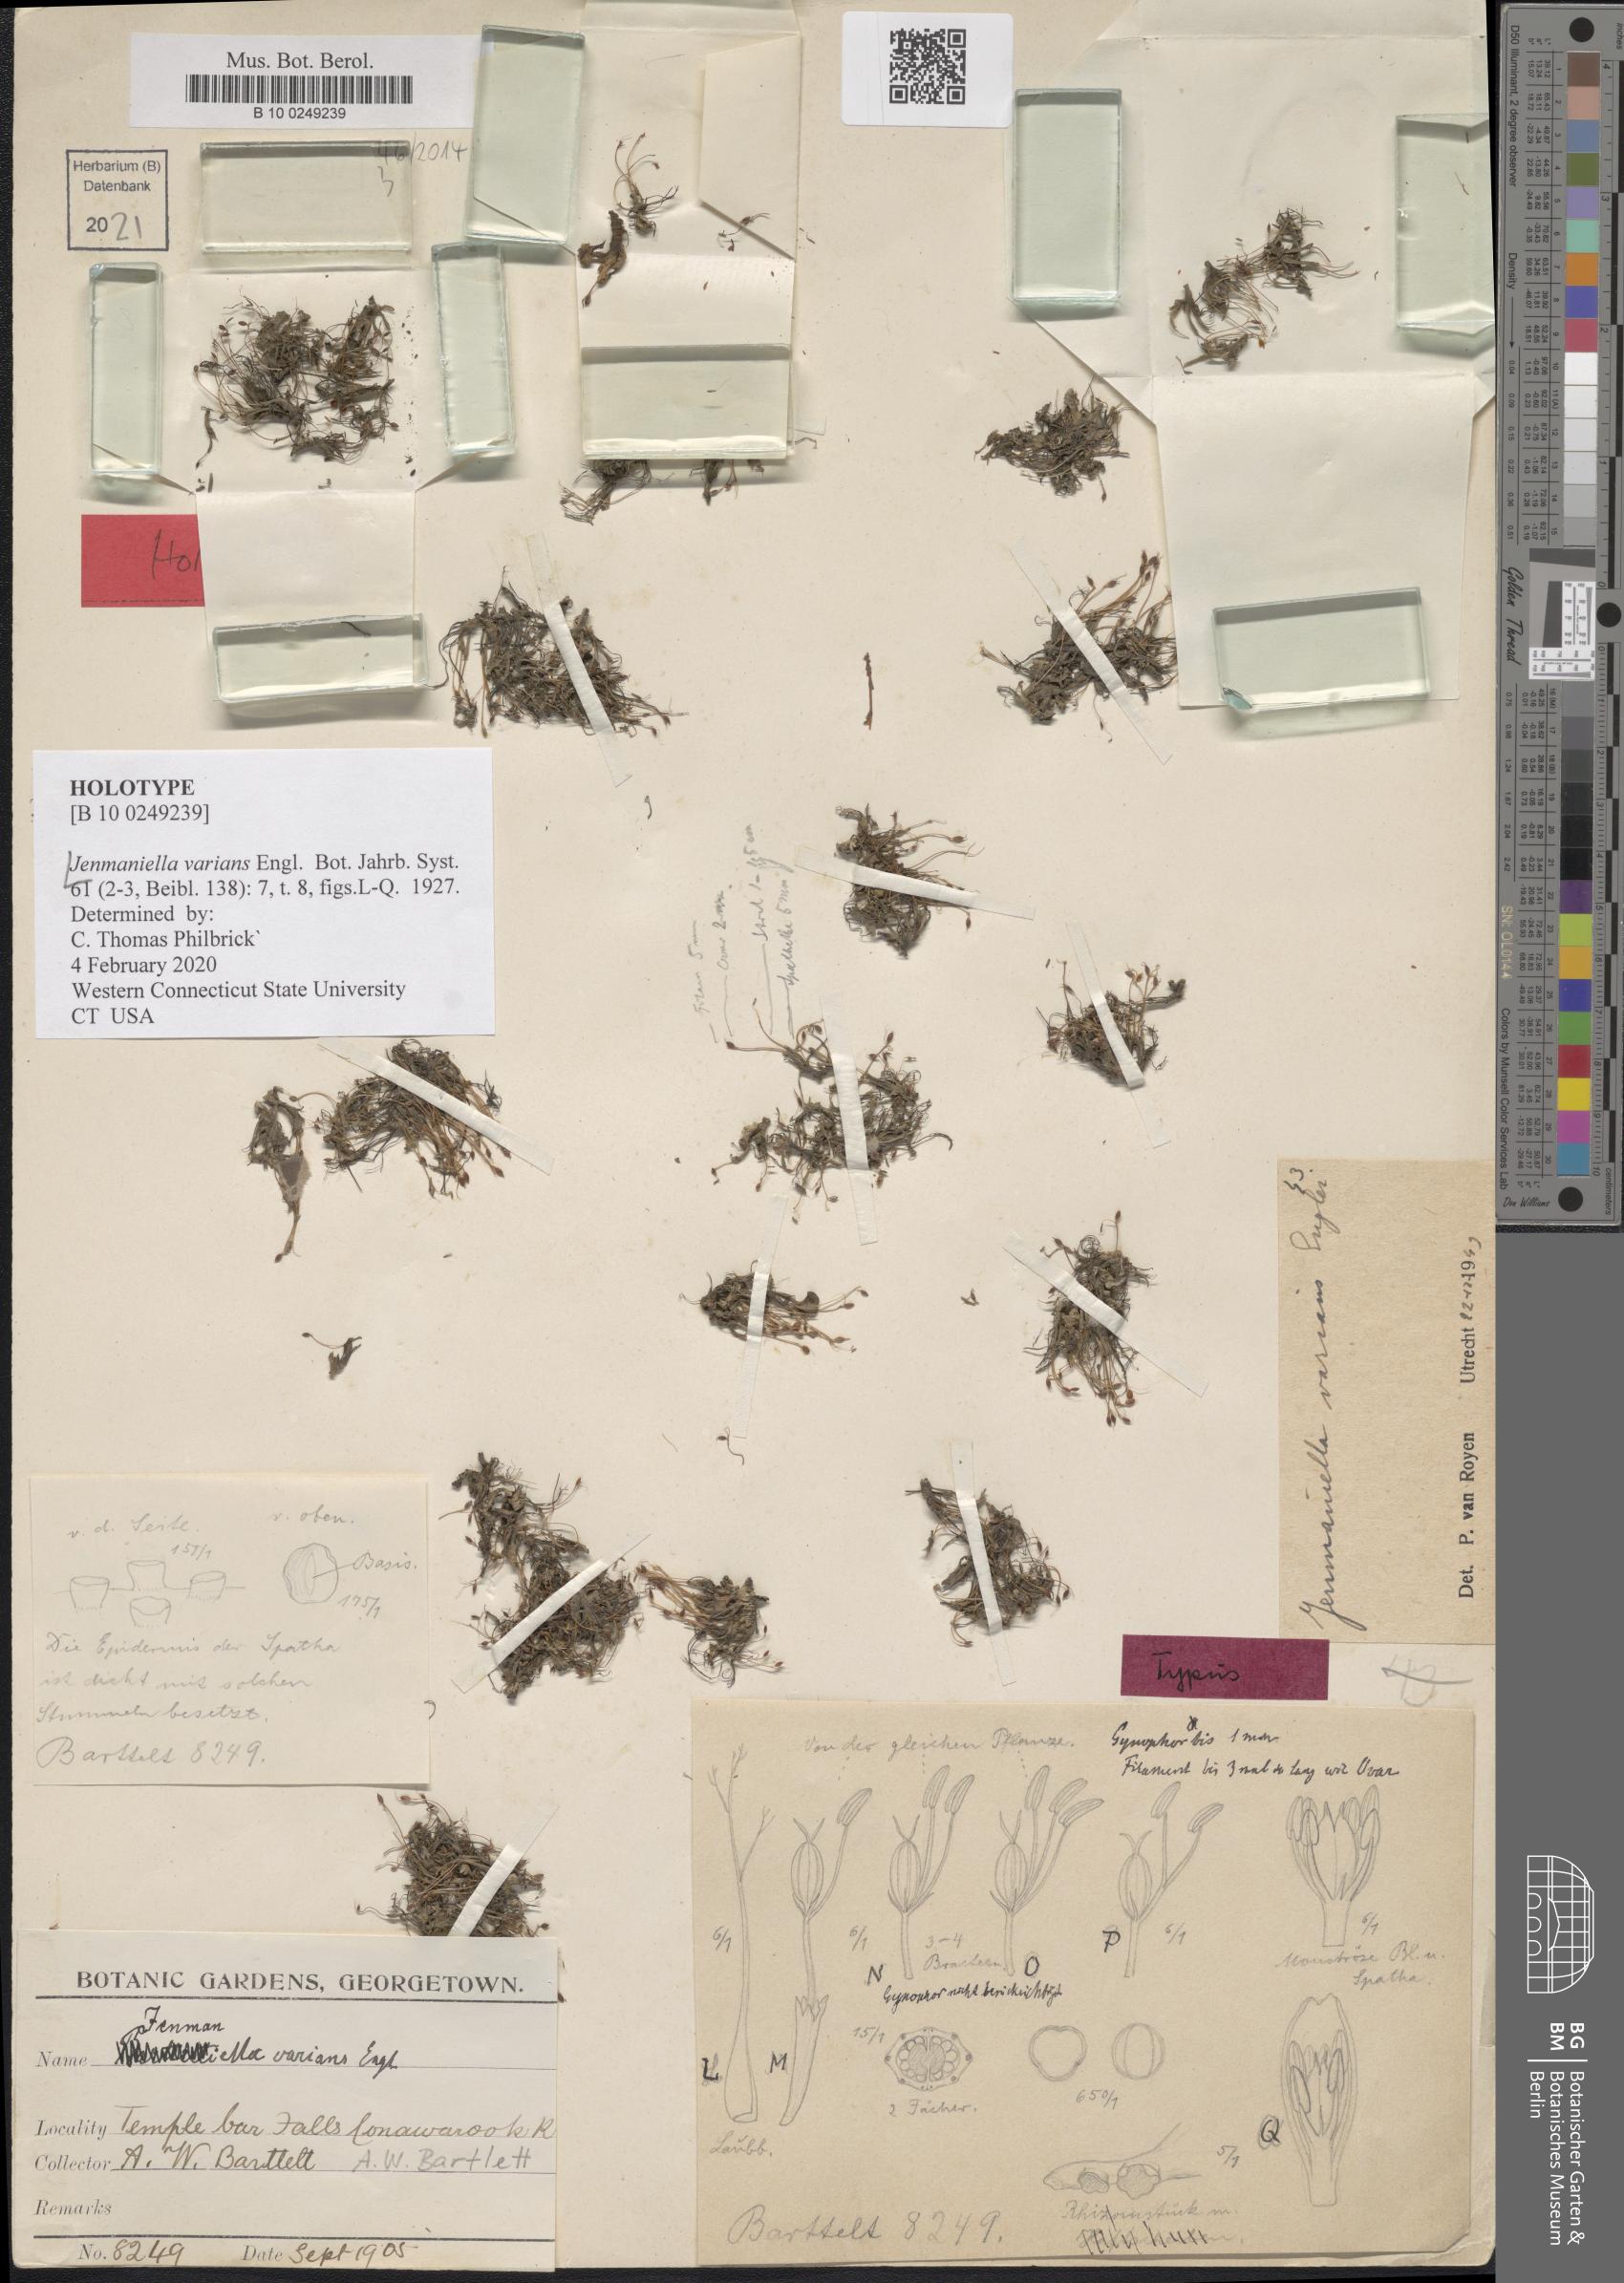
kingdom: Plantae
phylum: Tracheophyta
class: Magnoliopsida
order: Malpighiales
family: Podostemaceae
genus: Lophogyne
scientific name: Lophogyne varians
